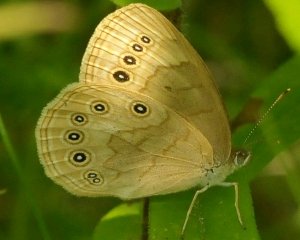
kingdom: Animalia
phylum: Arthropoda
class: Insecta
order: Lepidoptera
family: Nymphalidae
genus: Lethe
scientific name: Lethe eurydice
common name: Eyed Brown
